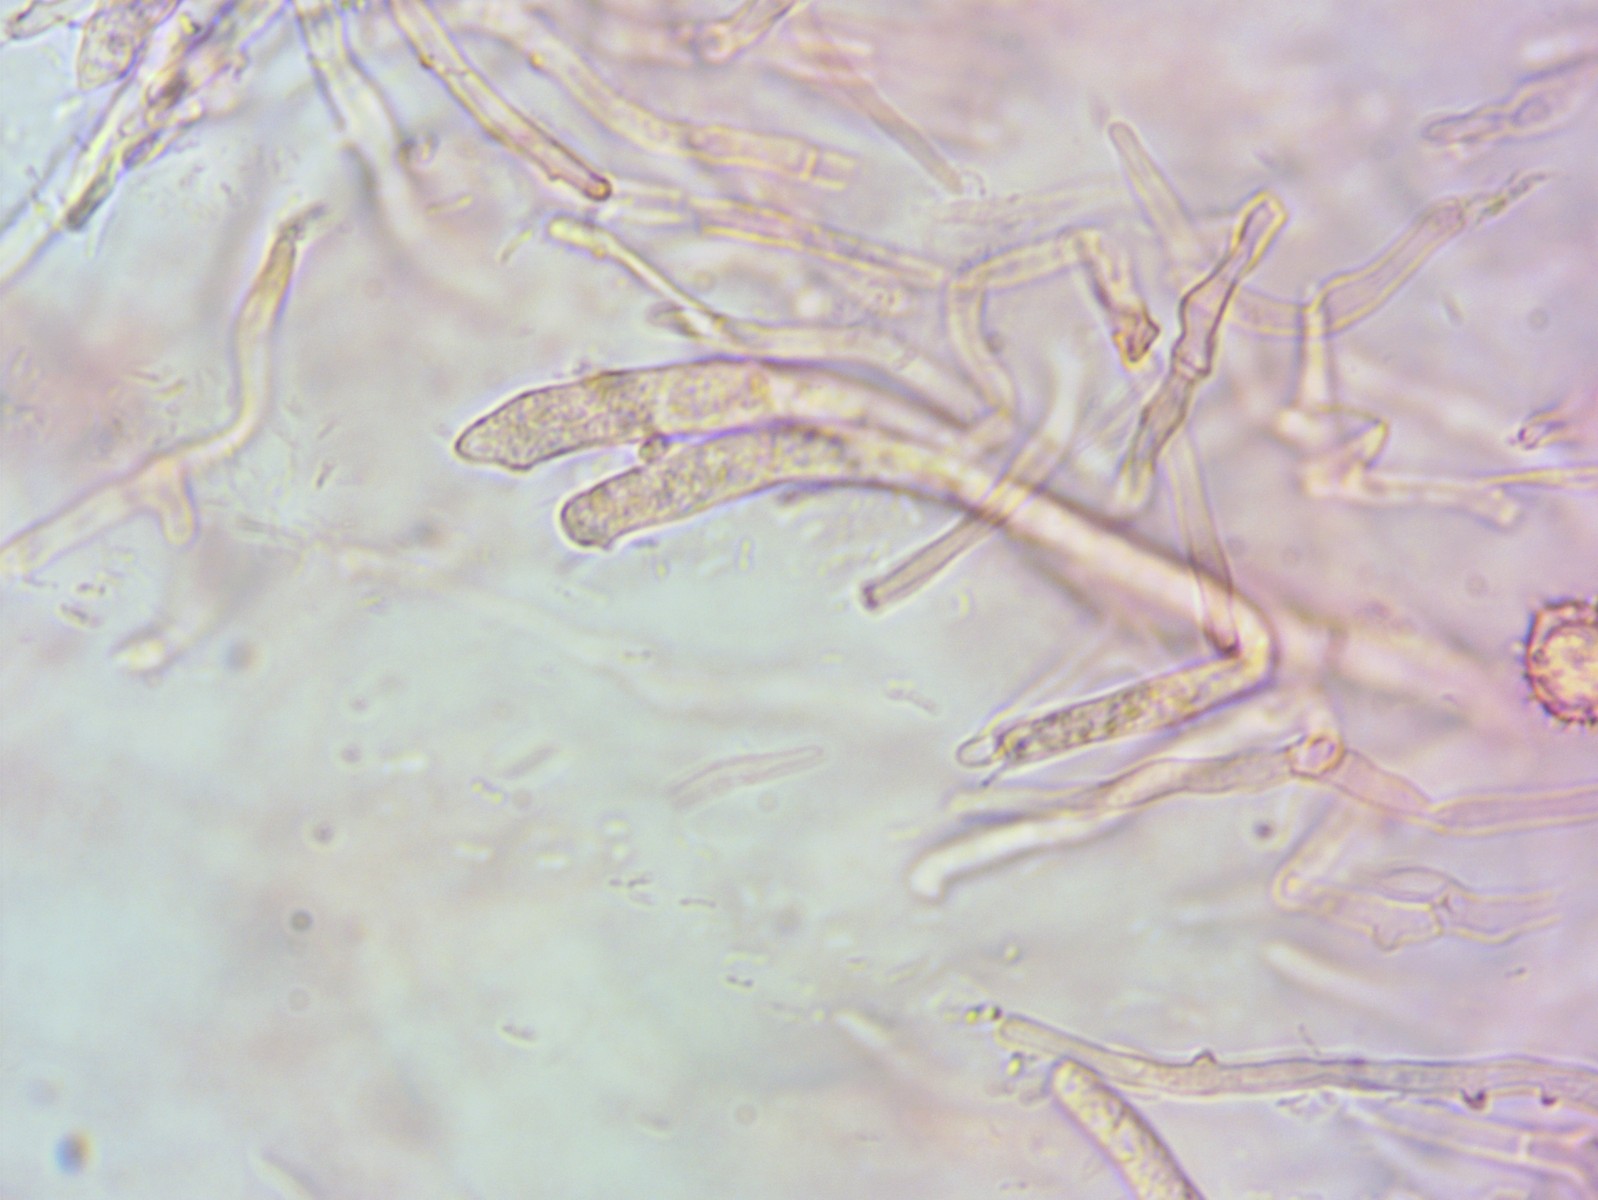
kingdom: Fungi
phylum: Basidiomycota
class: Agaricomycetes
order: Russulales
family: Russulaceae
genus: Russula
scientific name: Russula cuprea
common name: kanel-skørhat
